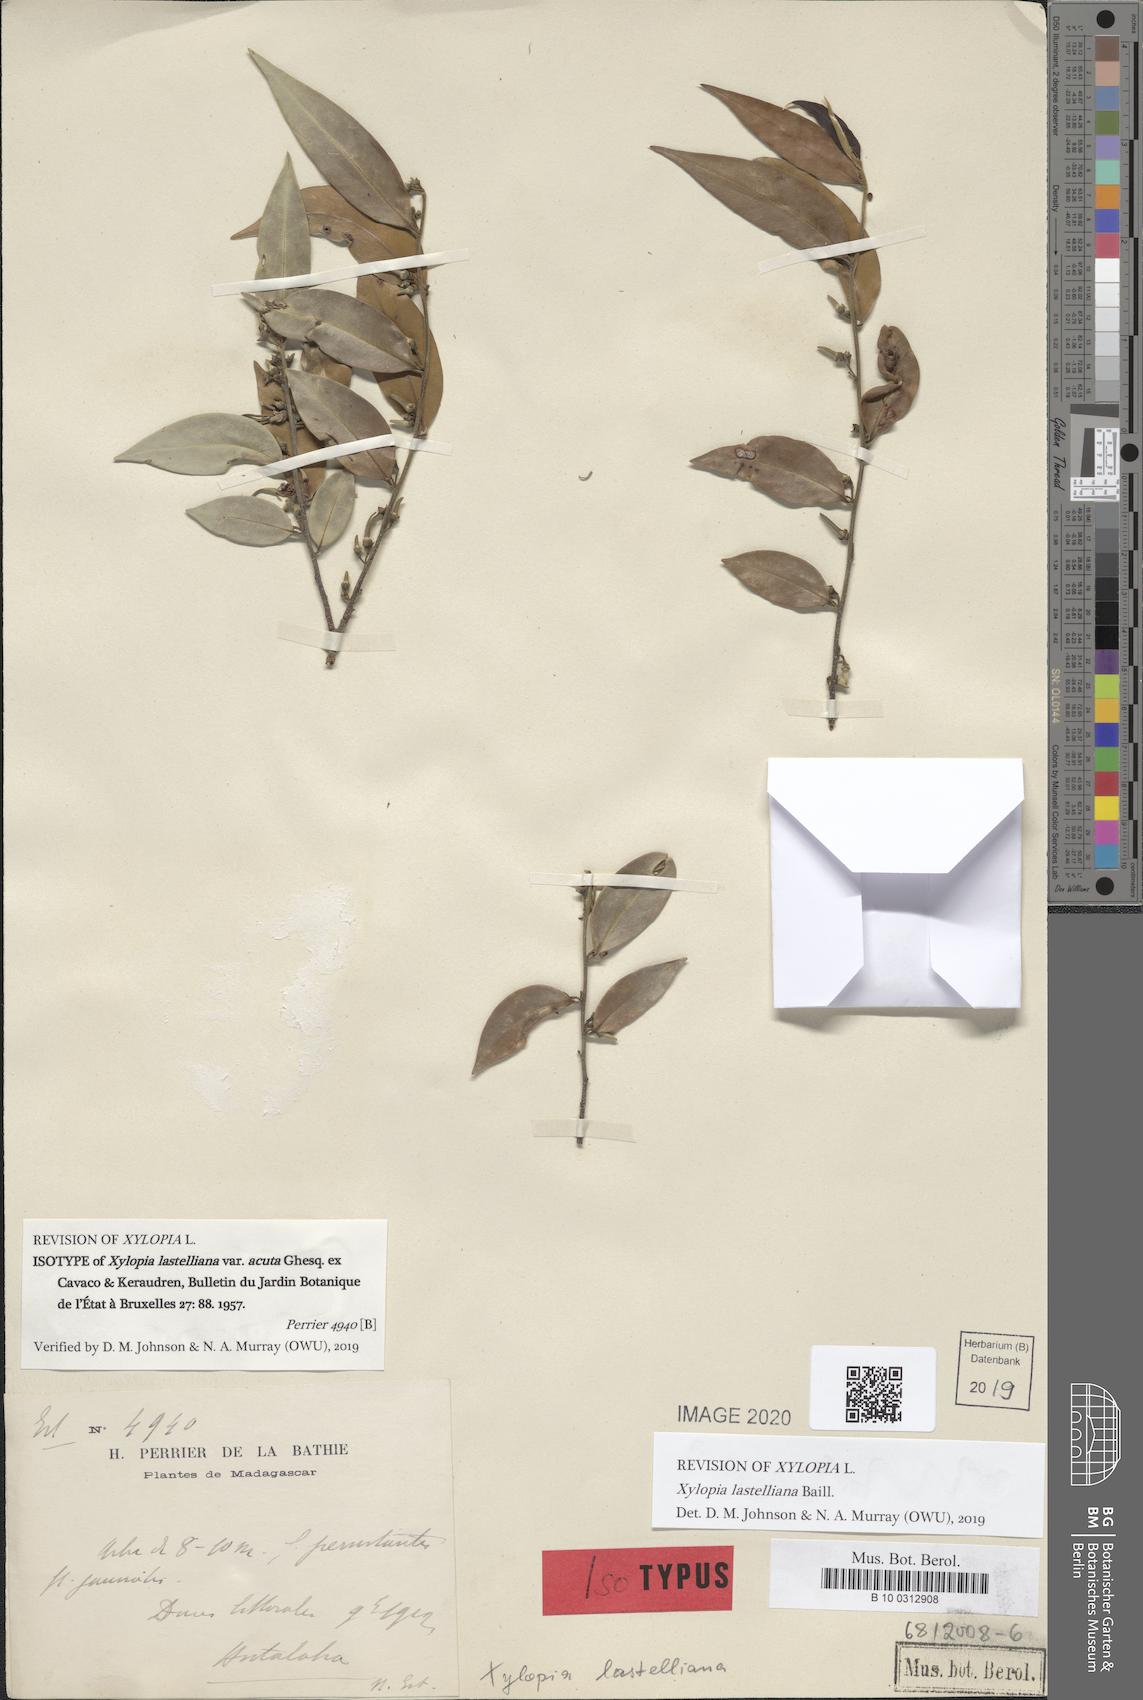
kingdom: Plantae
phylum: Tracheophyta
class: Magnoliopsida
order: Magnoliales
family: Annonaceae
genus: Xylopia
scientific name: Xylopia lastelliana
